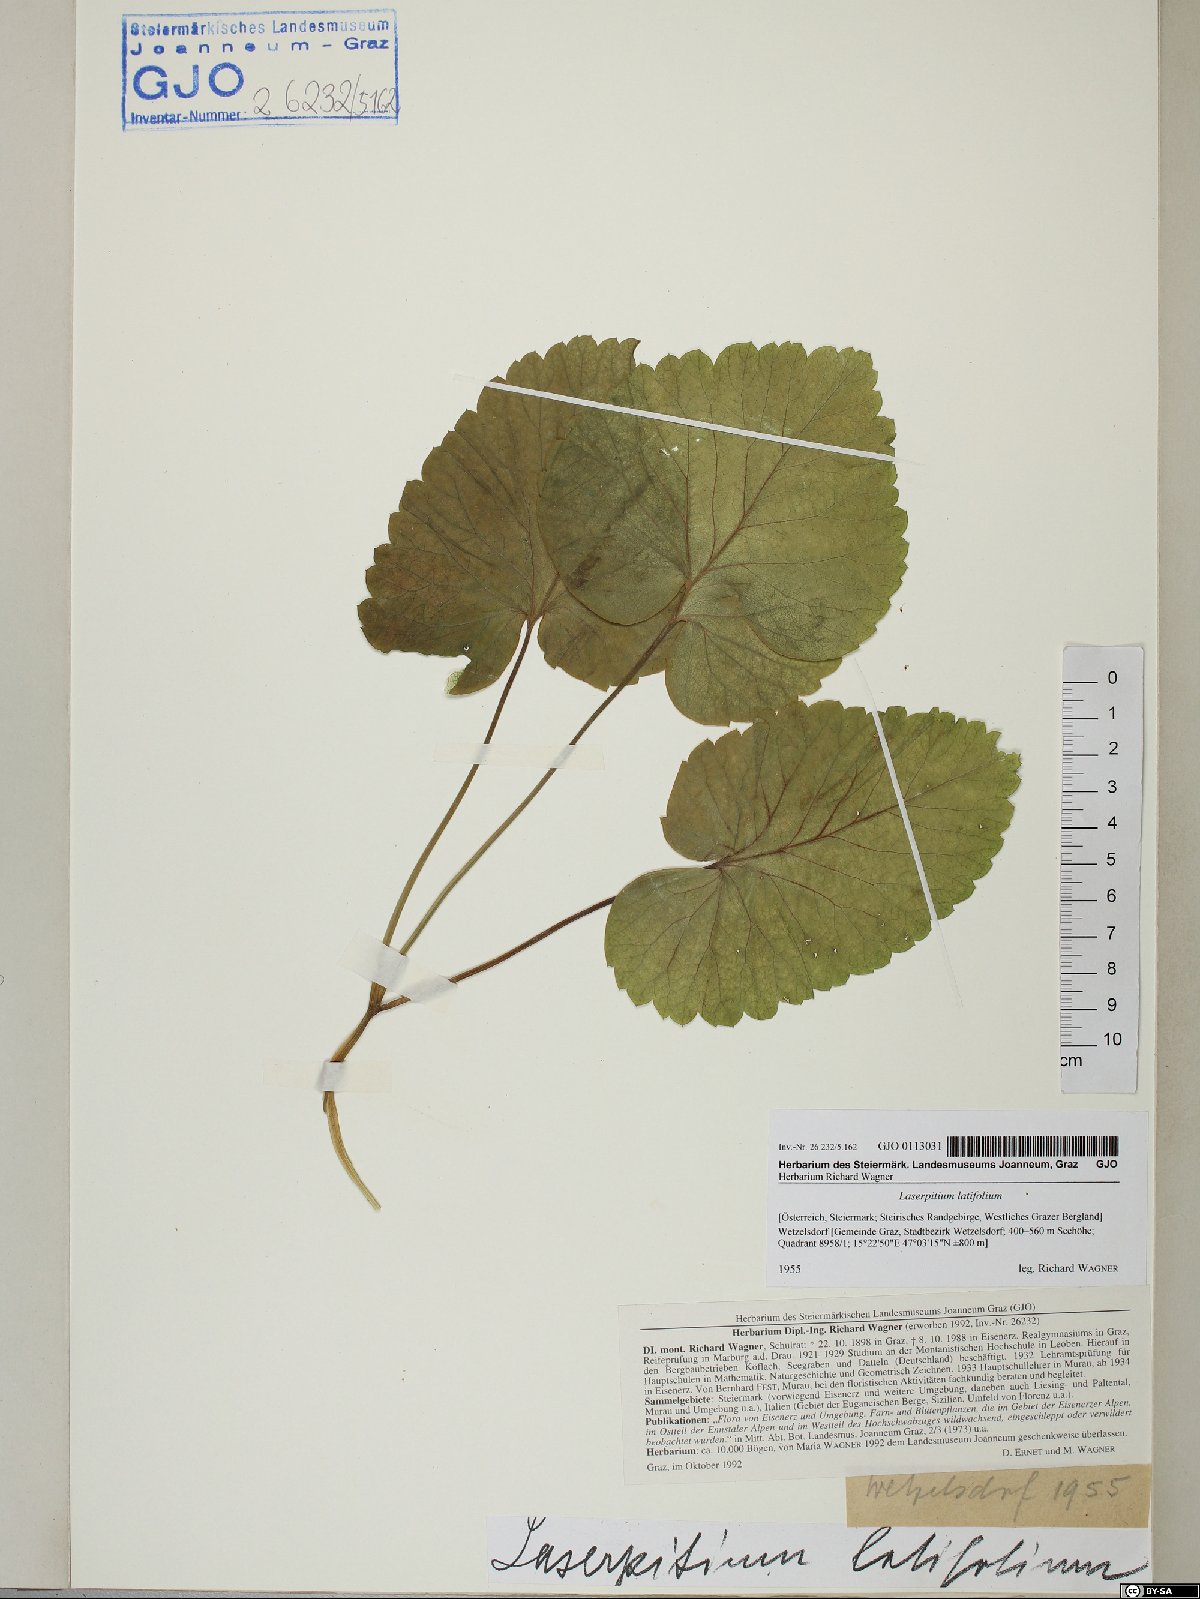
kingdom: Plantae
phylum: Tracheophyta
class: Magnoliopsida
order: Apiales
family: Apiaceae
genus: Laserpitium
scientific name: Laserpitium latifolium
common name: Broadleaf sermountain
